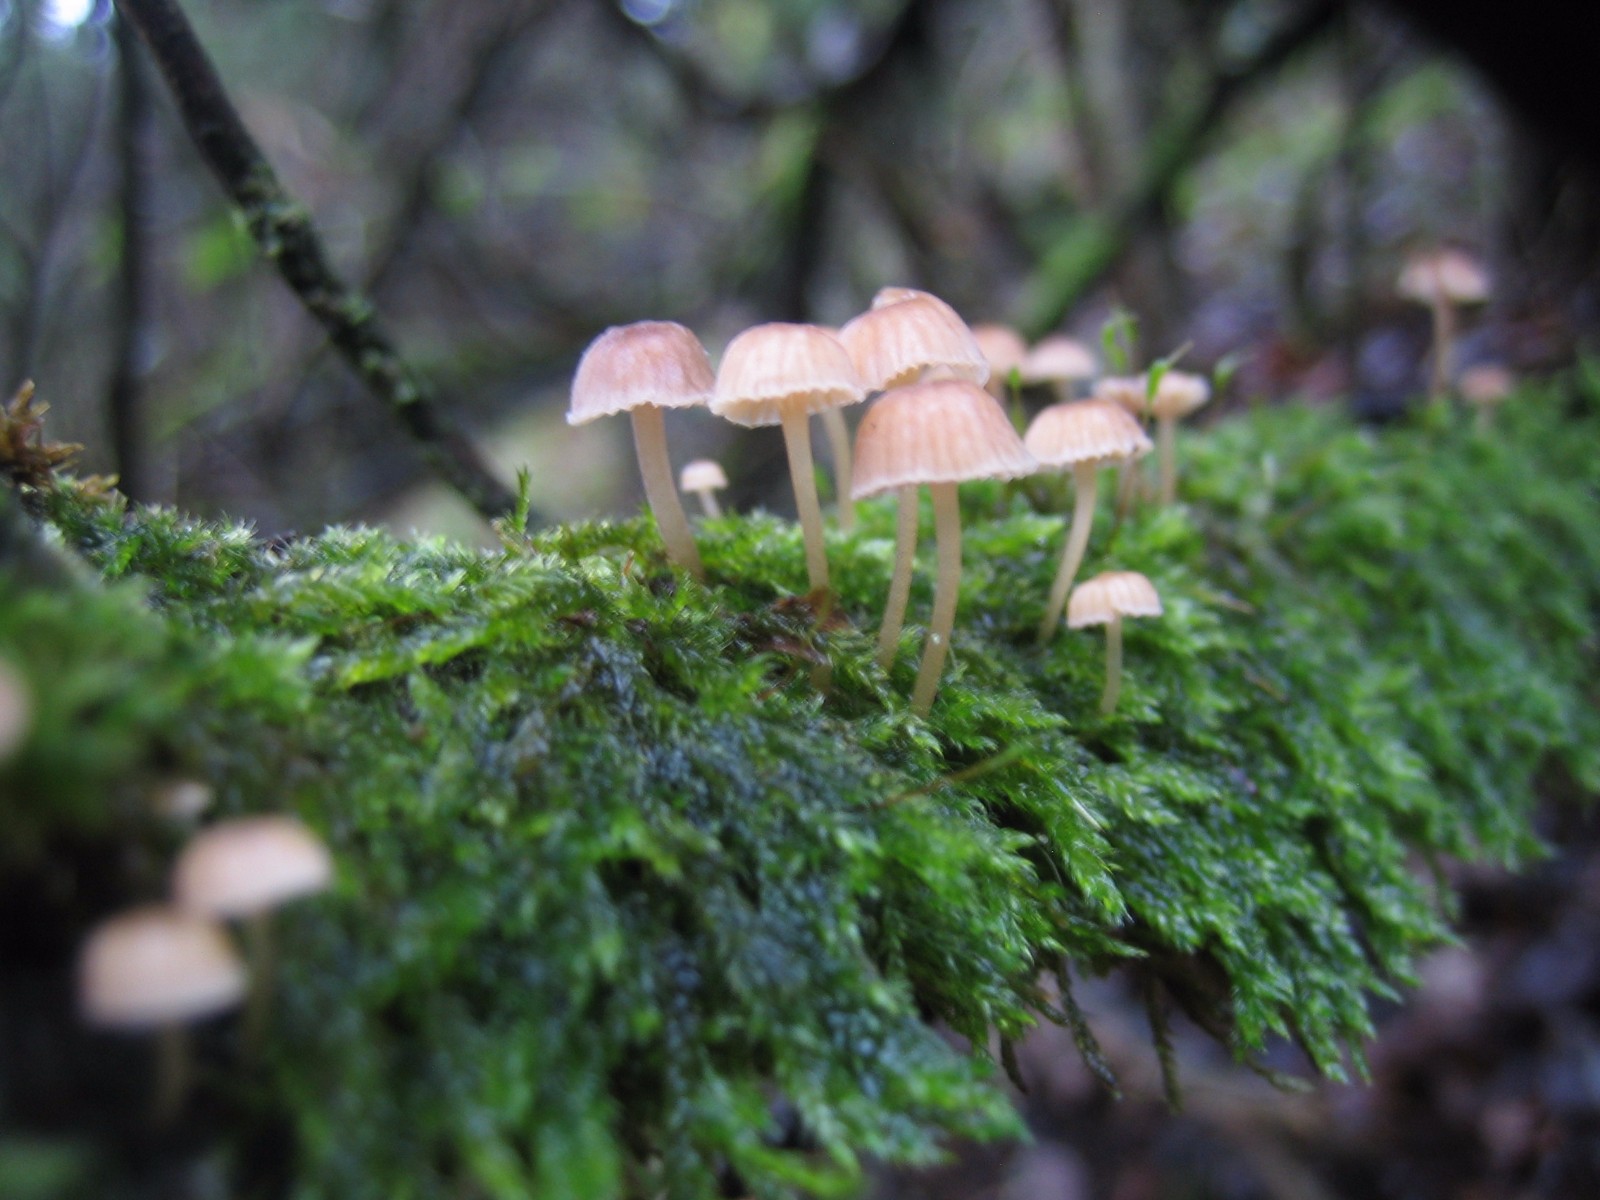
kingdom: Fungi
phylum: Basidiomycota
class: Agaricomycetes
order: Agaricales
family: Porotheleaceae
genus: Phloeomana
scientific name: Phloeomana
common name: huesvamp
